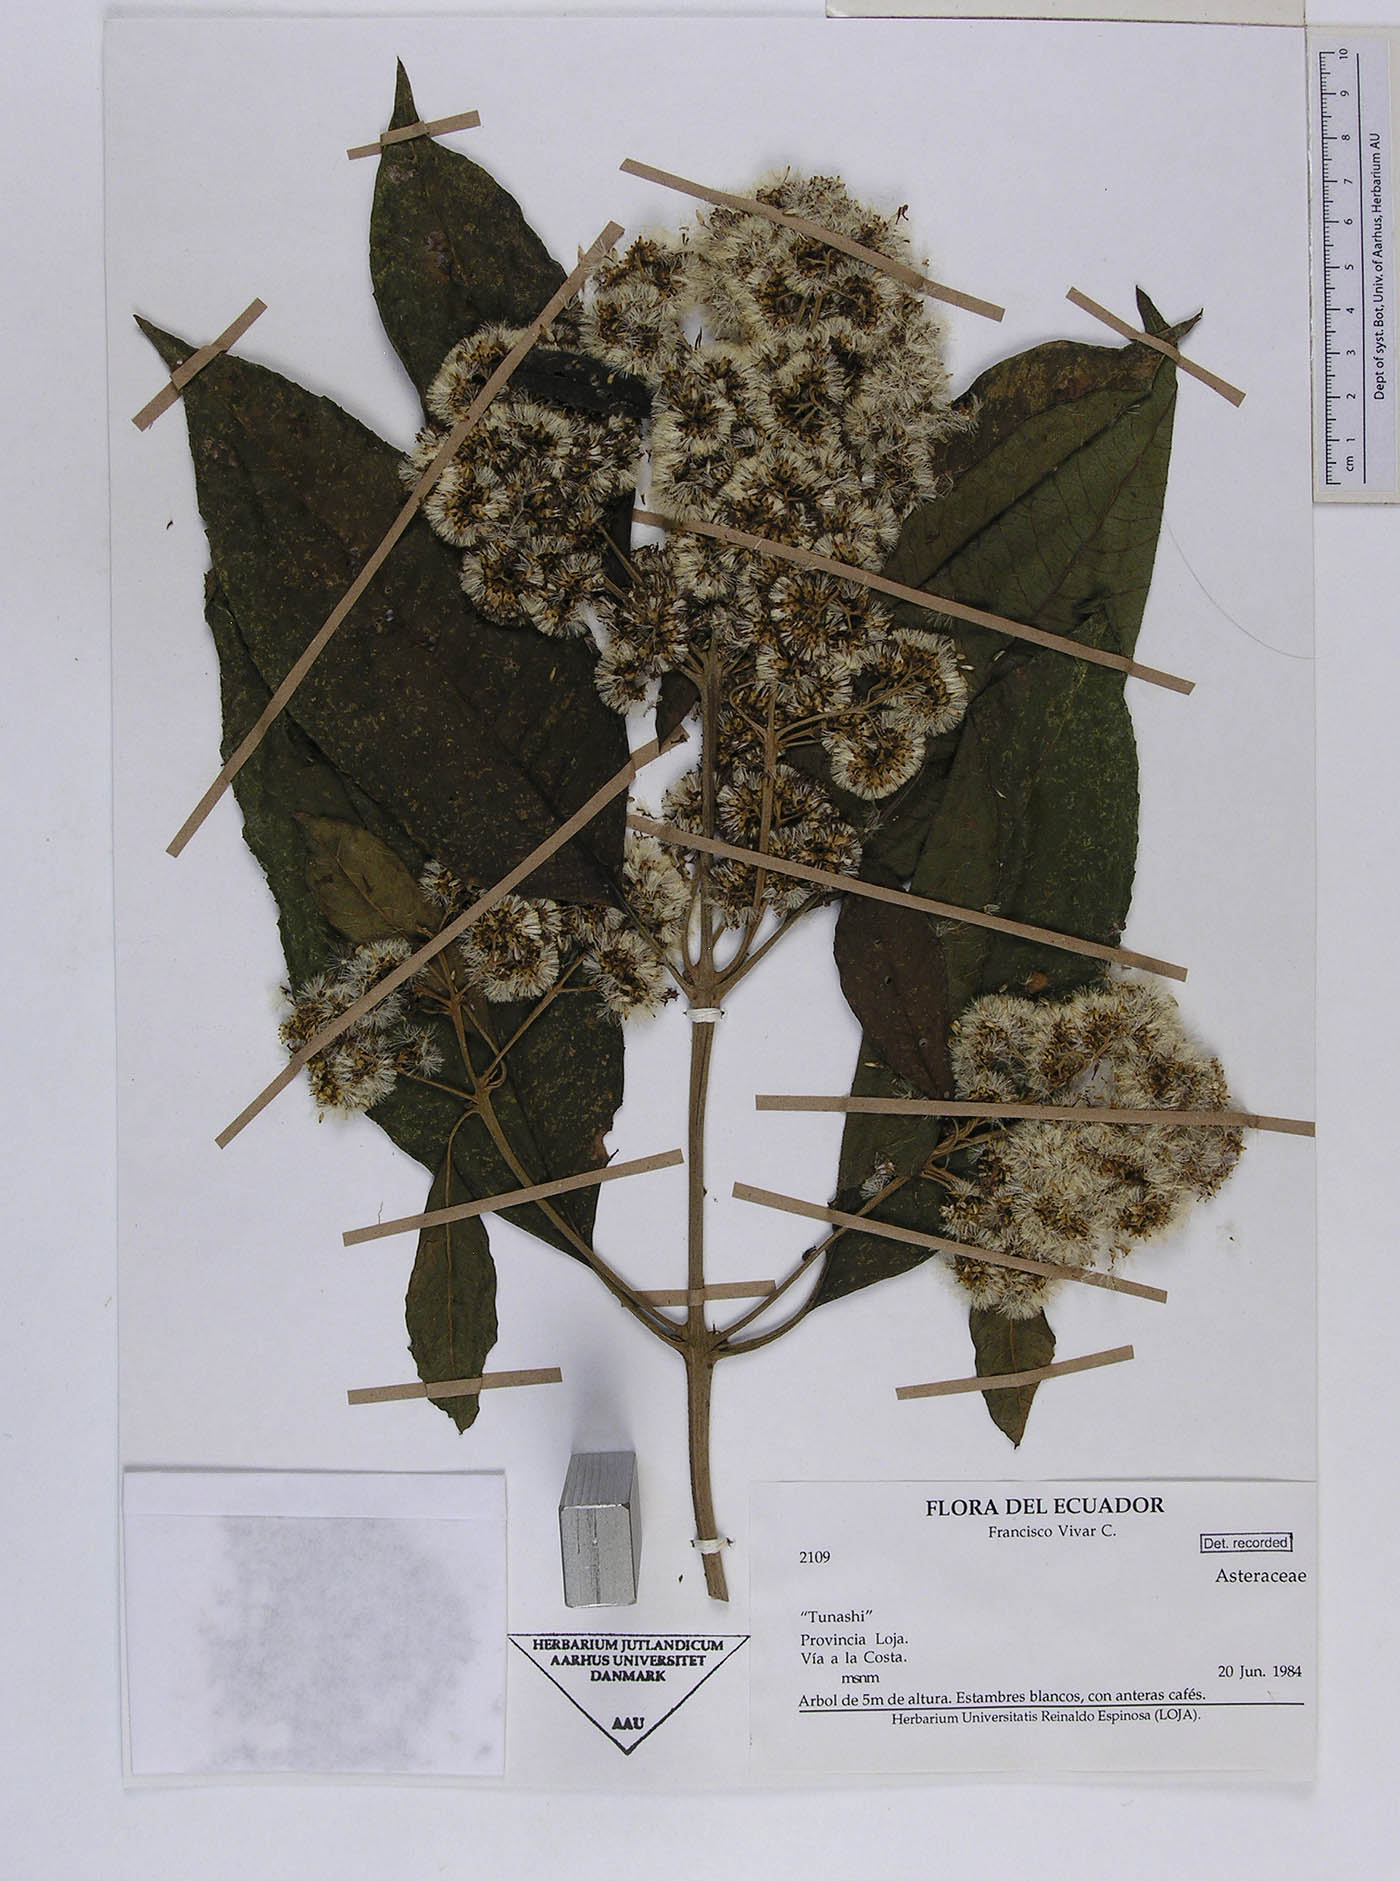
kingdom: Plantae
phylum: Tracheophyta
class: Magnoliopsida
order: Asterales
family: Asteraceae
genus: Critoniopsis
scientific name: Critoniopsis vivarii
